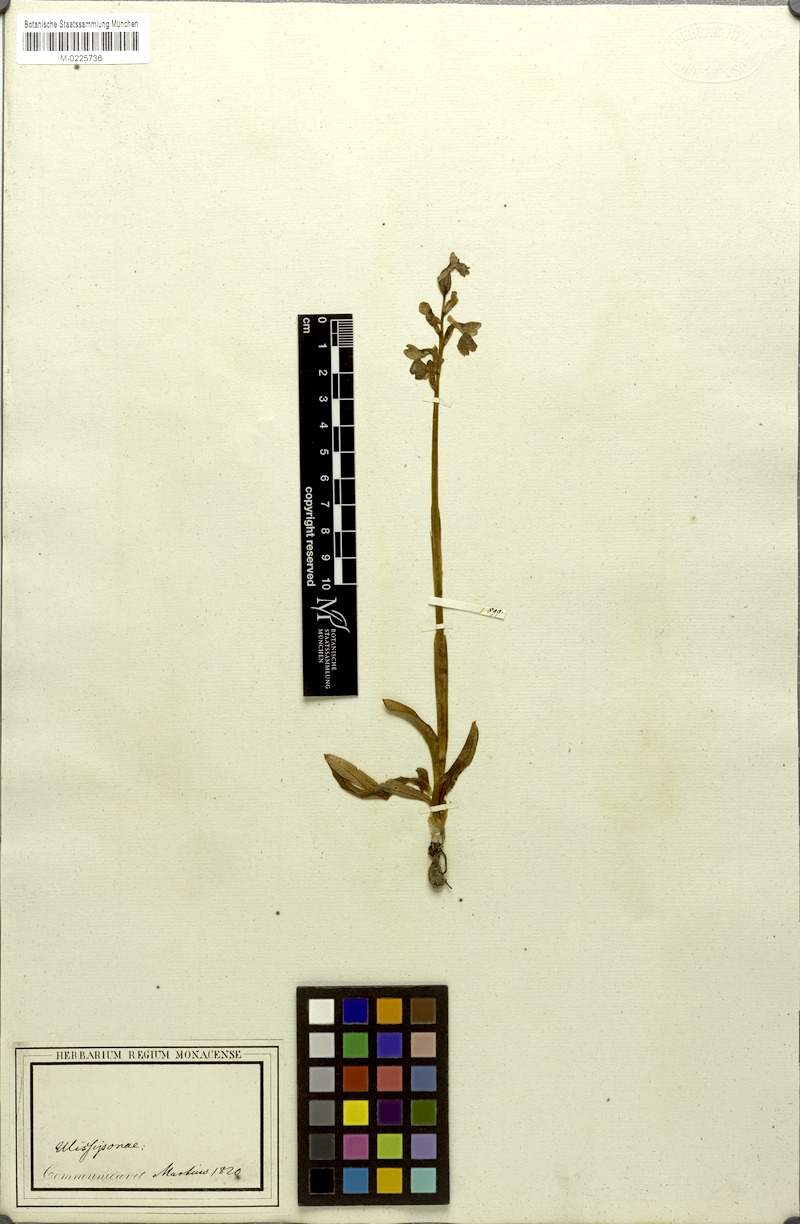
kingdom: Plantae
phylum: Tracheophyta
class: Liliopsida
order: Asparagales
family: Orchidaceae
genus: Anacamptis
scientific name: Anacamptis morio
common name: Green-winged orchid
